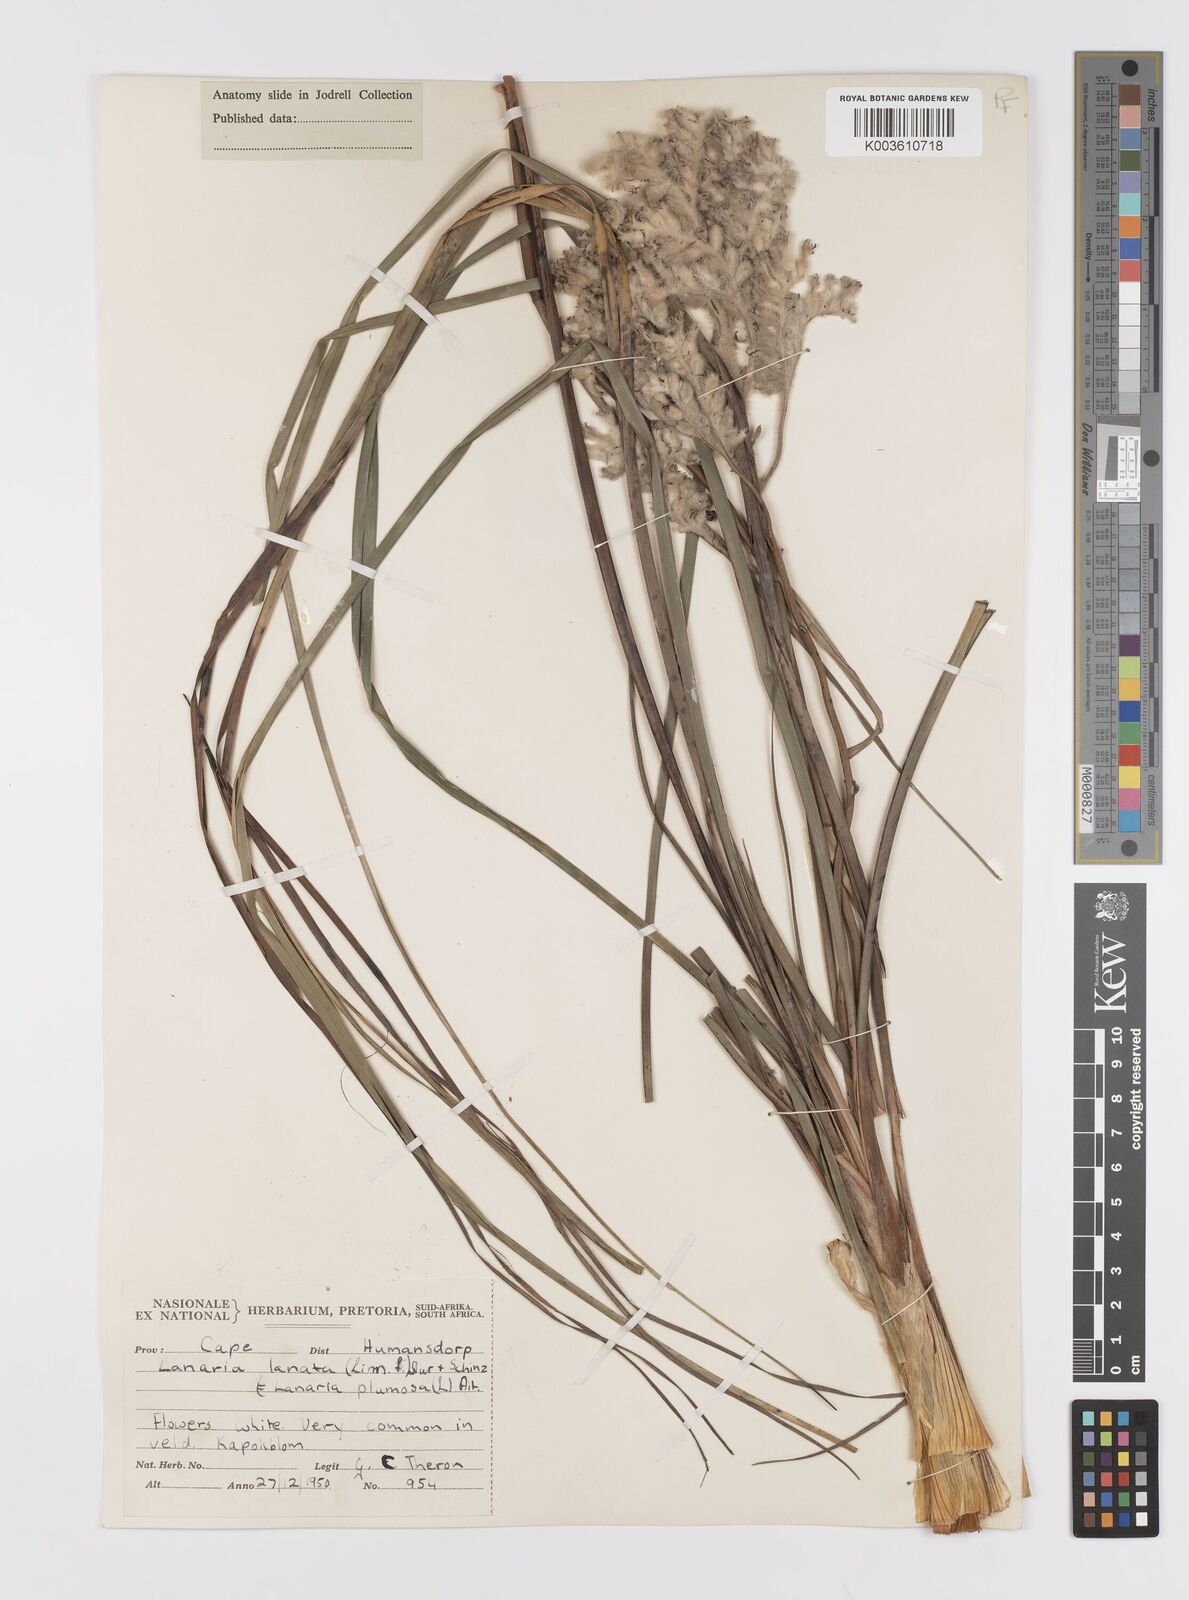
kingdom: Plantae
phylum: Tracheophyta
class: Liliopsida
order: Asparagales
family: Lanariaceae
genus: Lanaria
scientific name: Lanaria lanata
